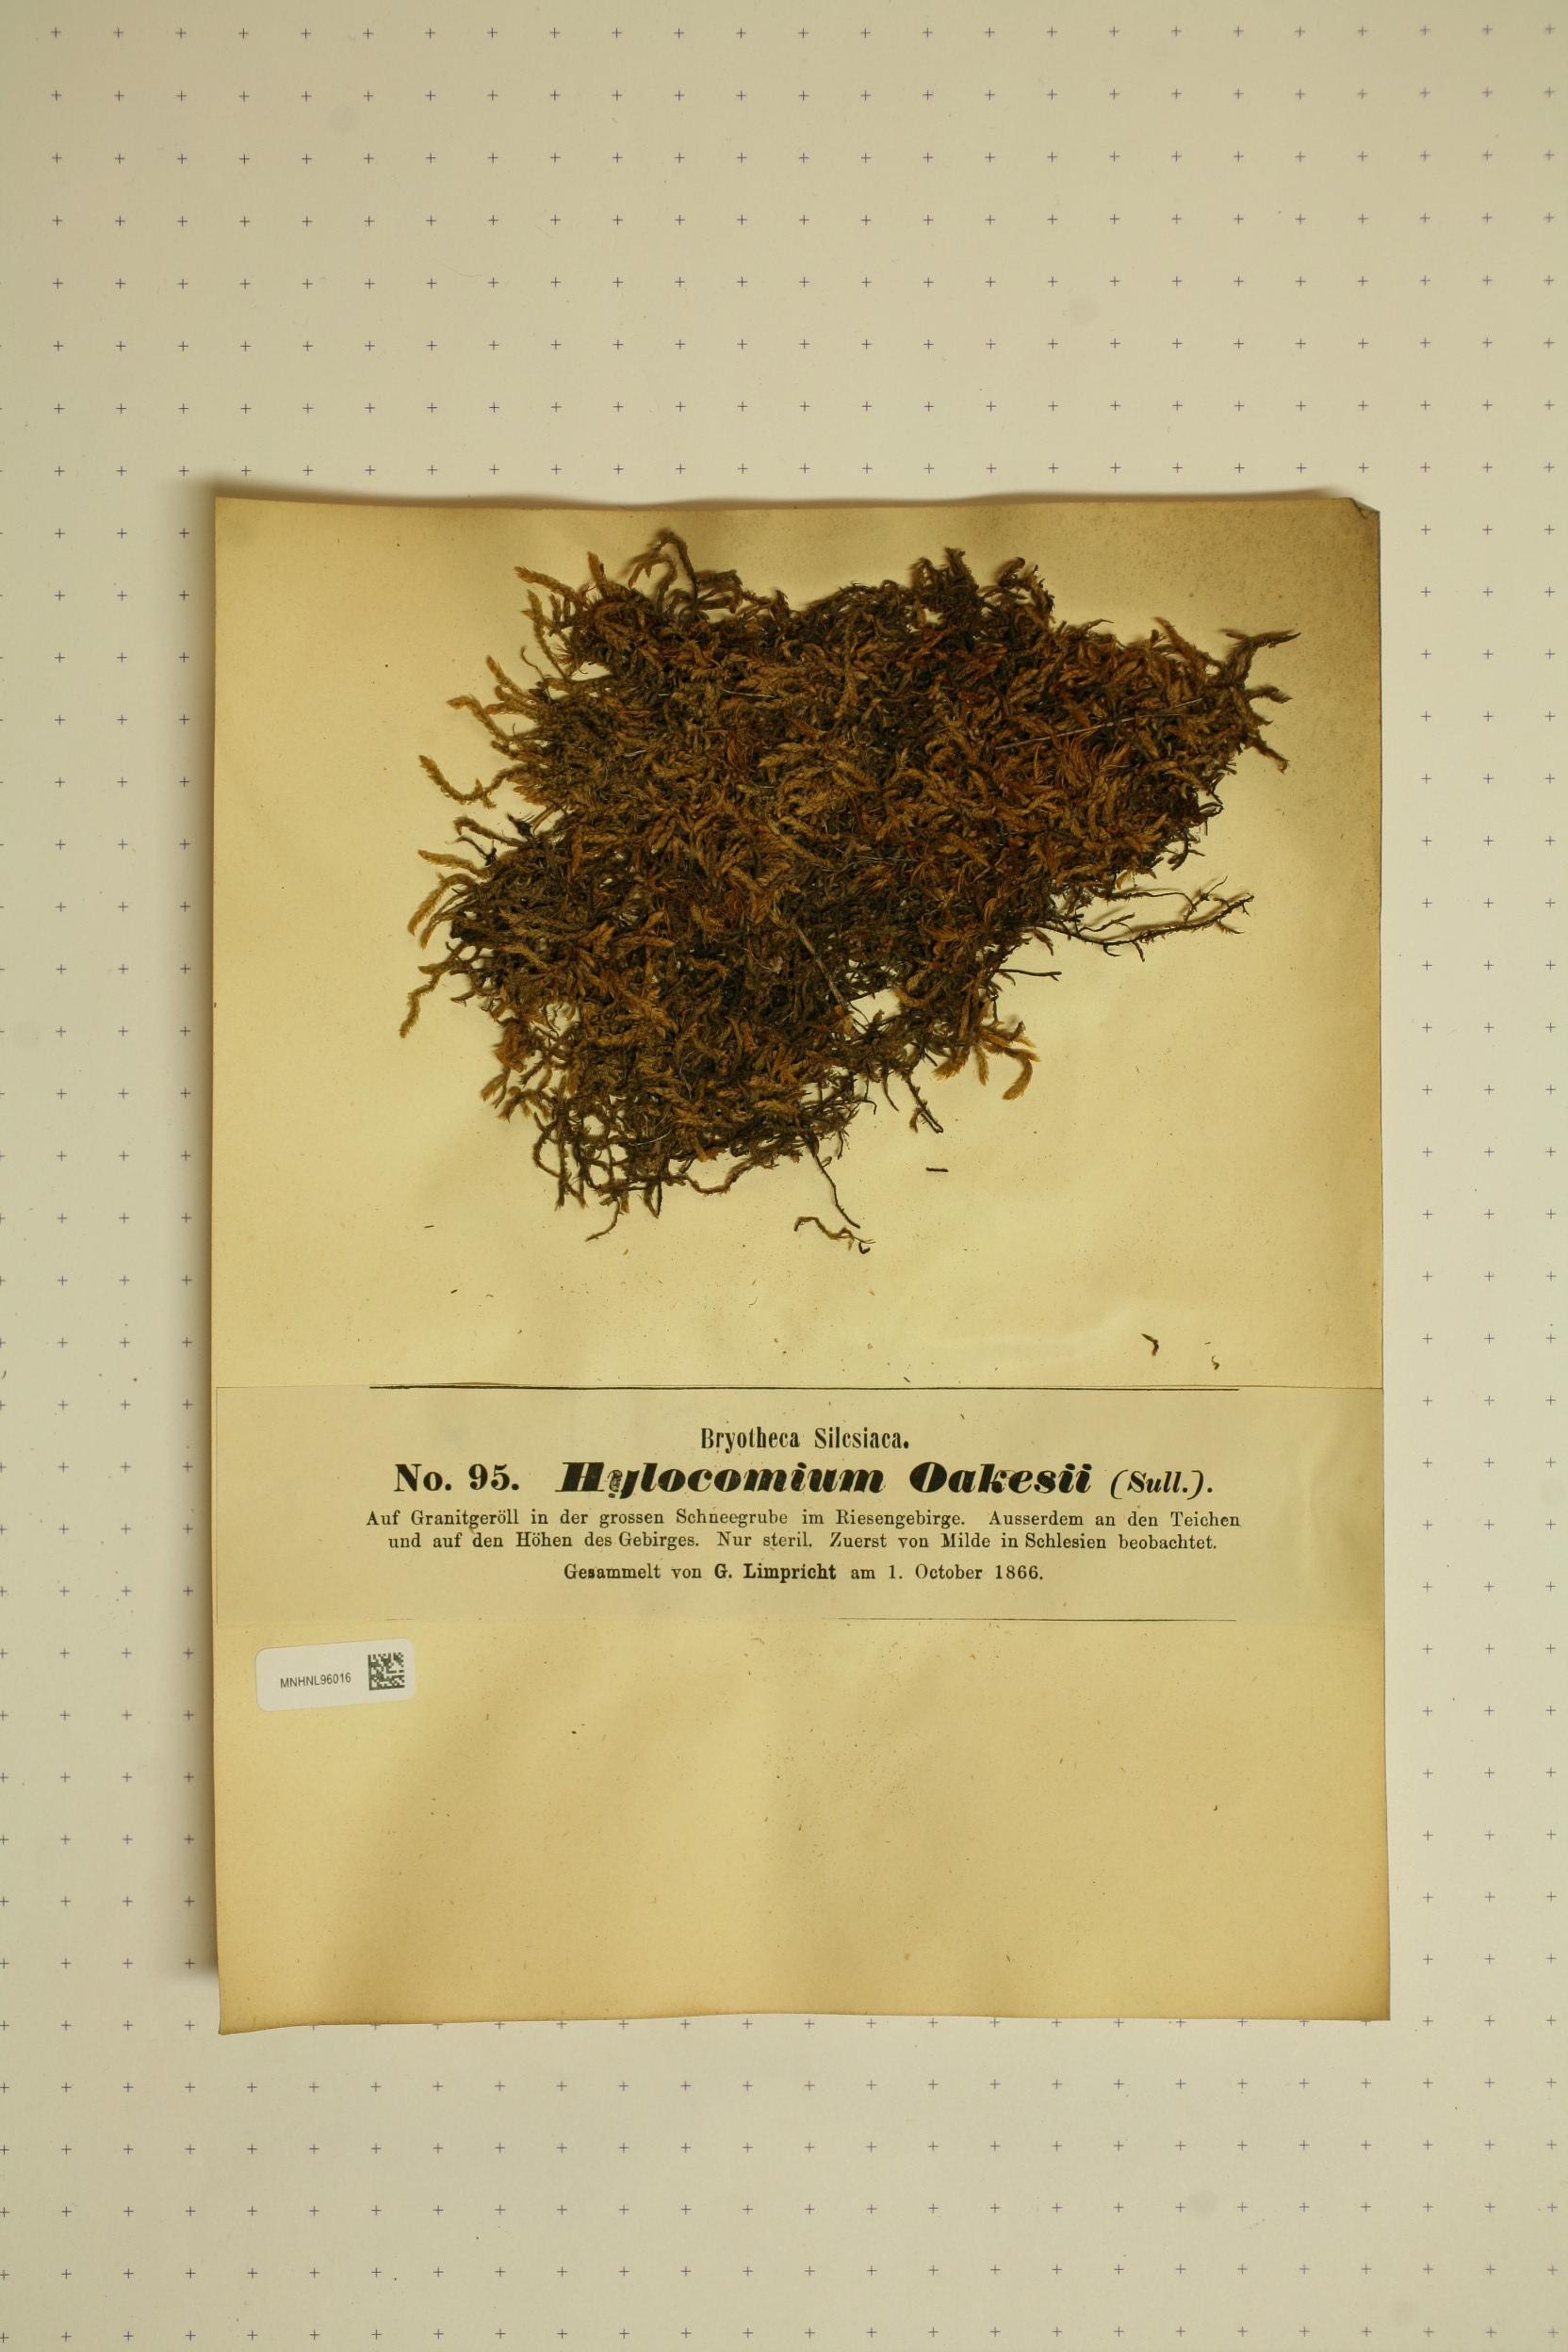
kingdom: Plantae
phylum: Bryophyta
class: Bryopsida
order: Hypnales
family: Hylocomiaceae
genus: Hylocomiastrum
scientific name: Hylocomiastrum pyrenaicum
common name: Oake s wood moss
